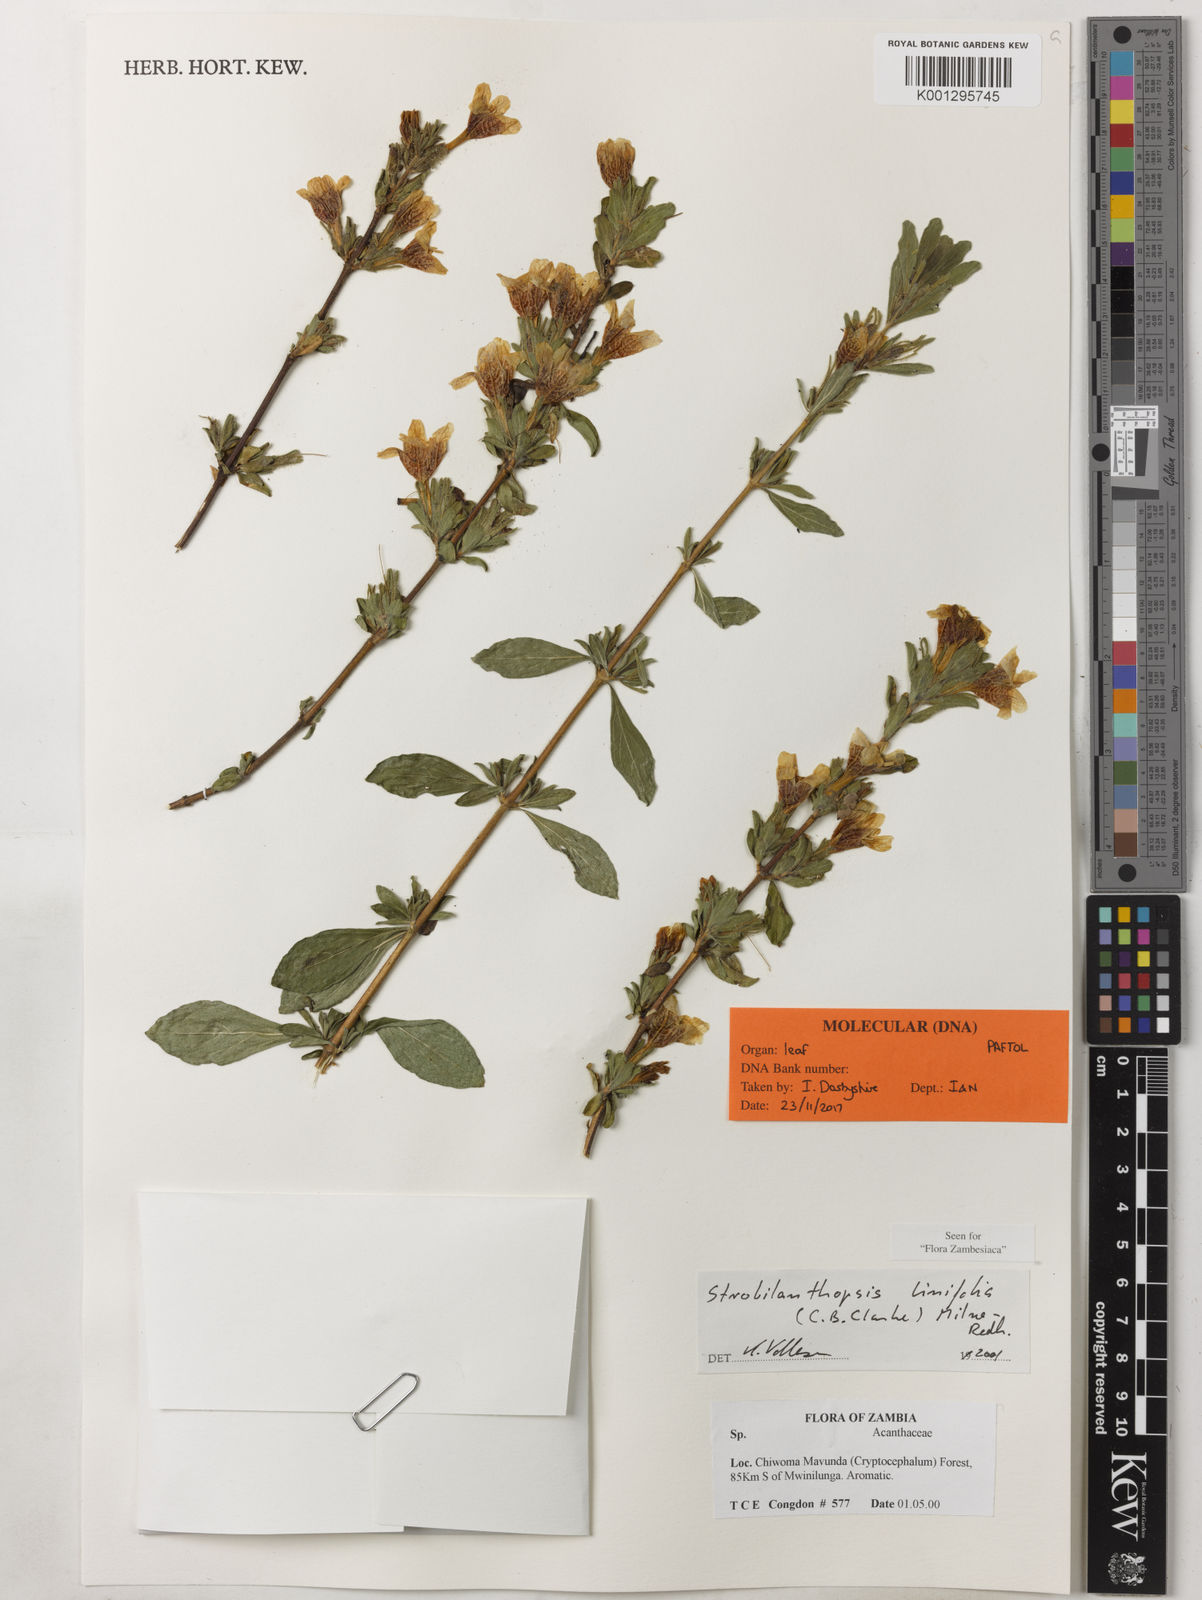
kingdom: Plantae
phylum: Tracheophyta
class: Magnoliopsida
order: Lamiales
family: Acanthaceae
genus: Strobilanthopsis
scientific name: Strobilanthopsis linifolia
